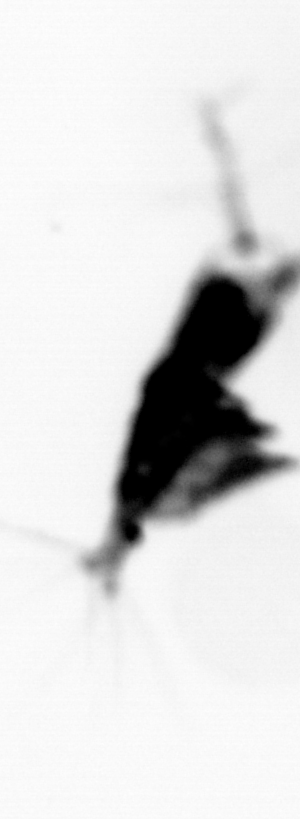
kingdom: Animalia
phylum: Annelida
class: Polychaeta
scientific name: Polychaeta
